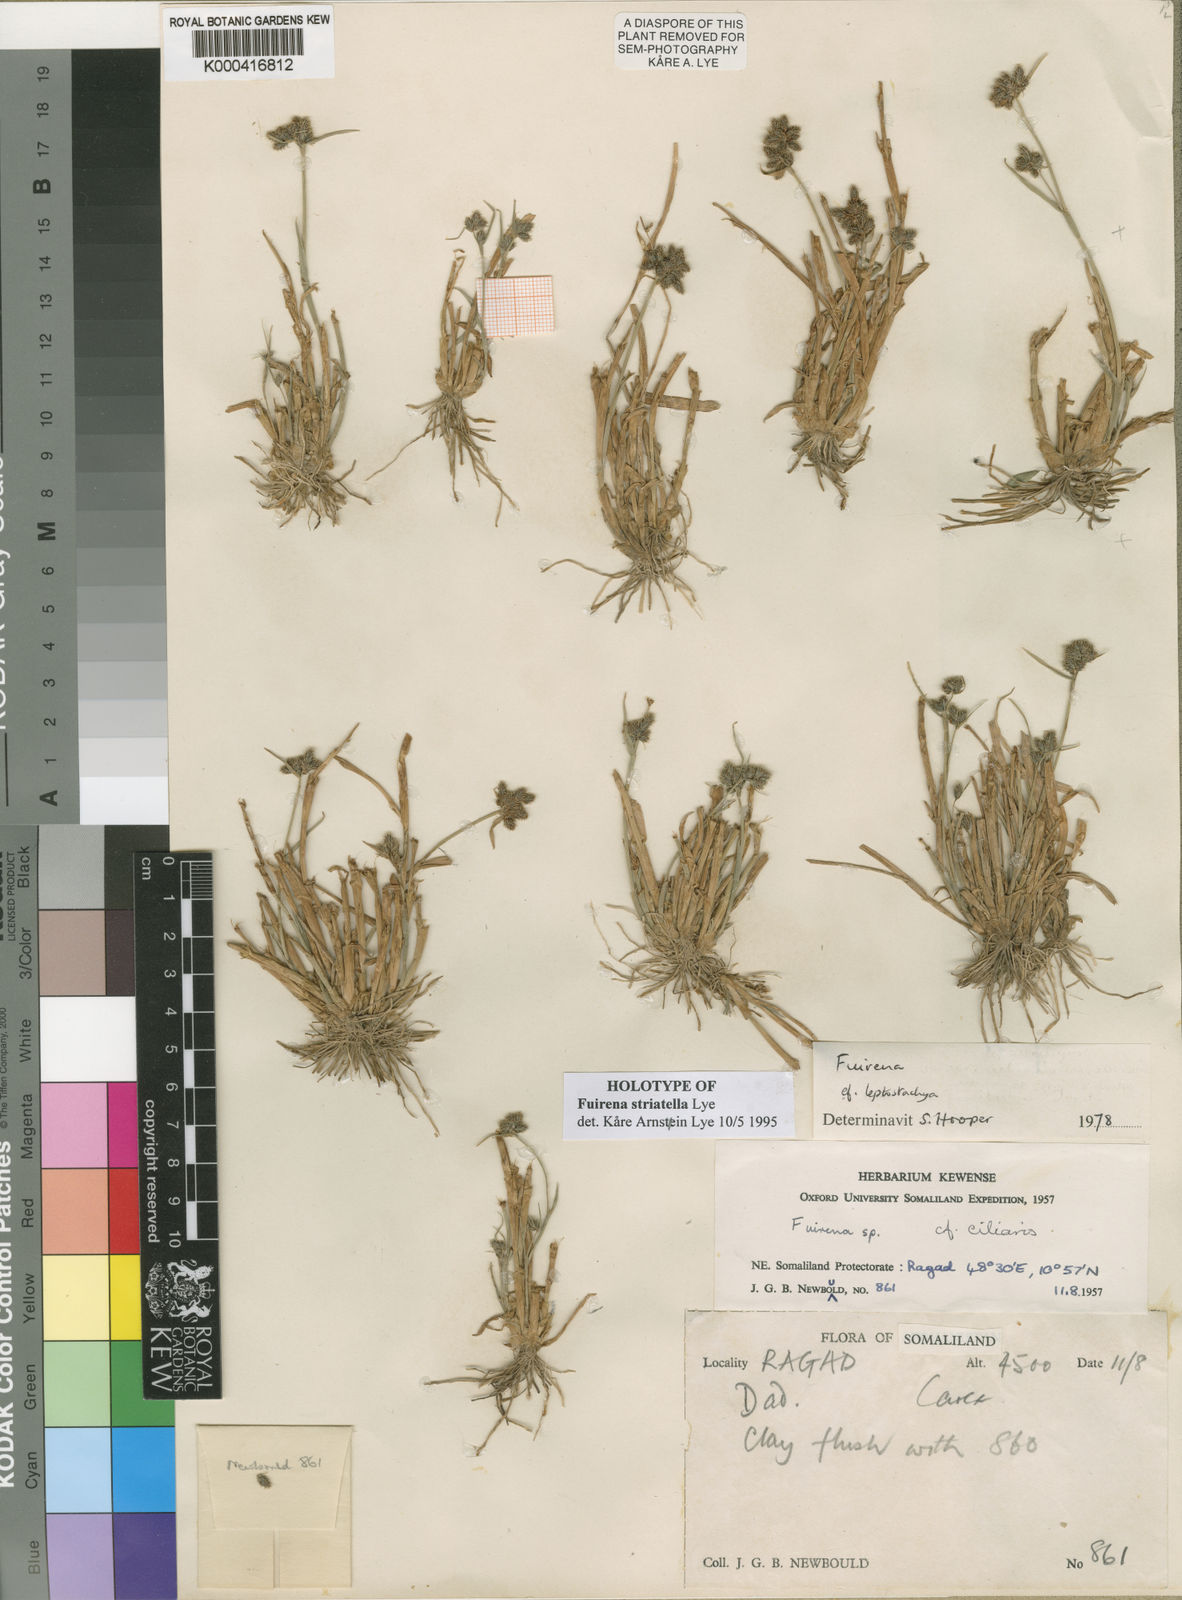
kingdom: Plantae
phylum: Tracheophyta
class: Liliopsida
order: Poales
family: Cyperaceae
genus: Fuirena
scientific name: Fuirena striatella
